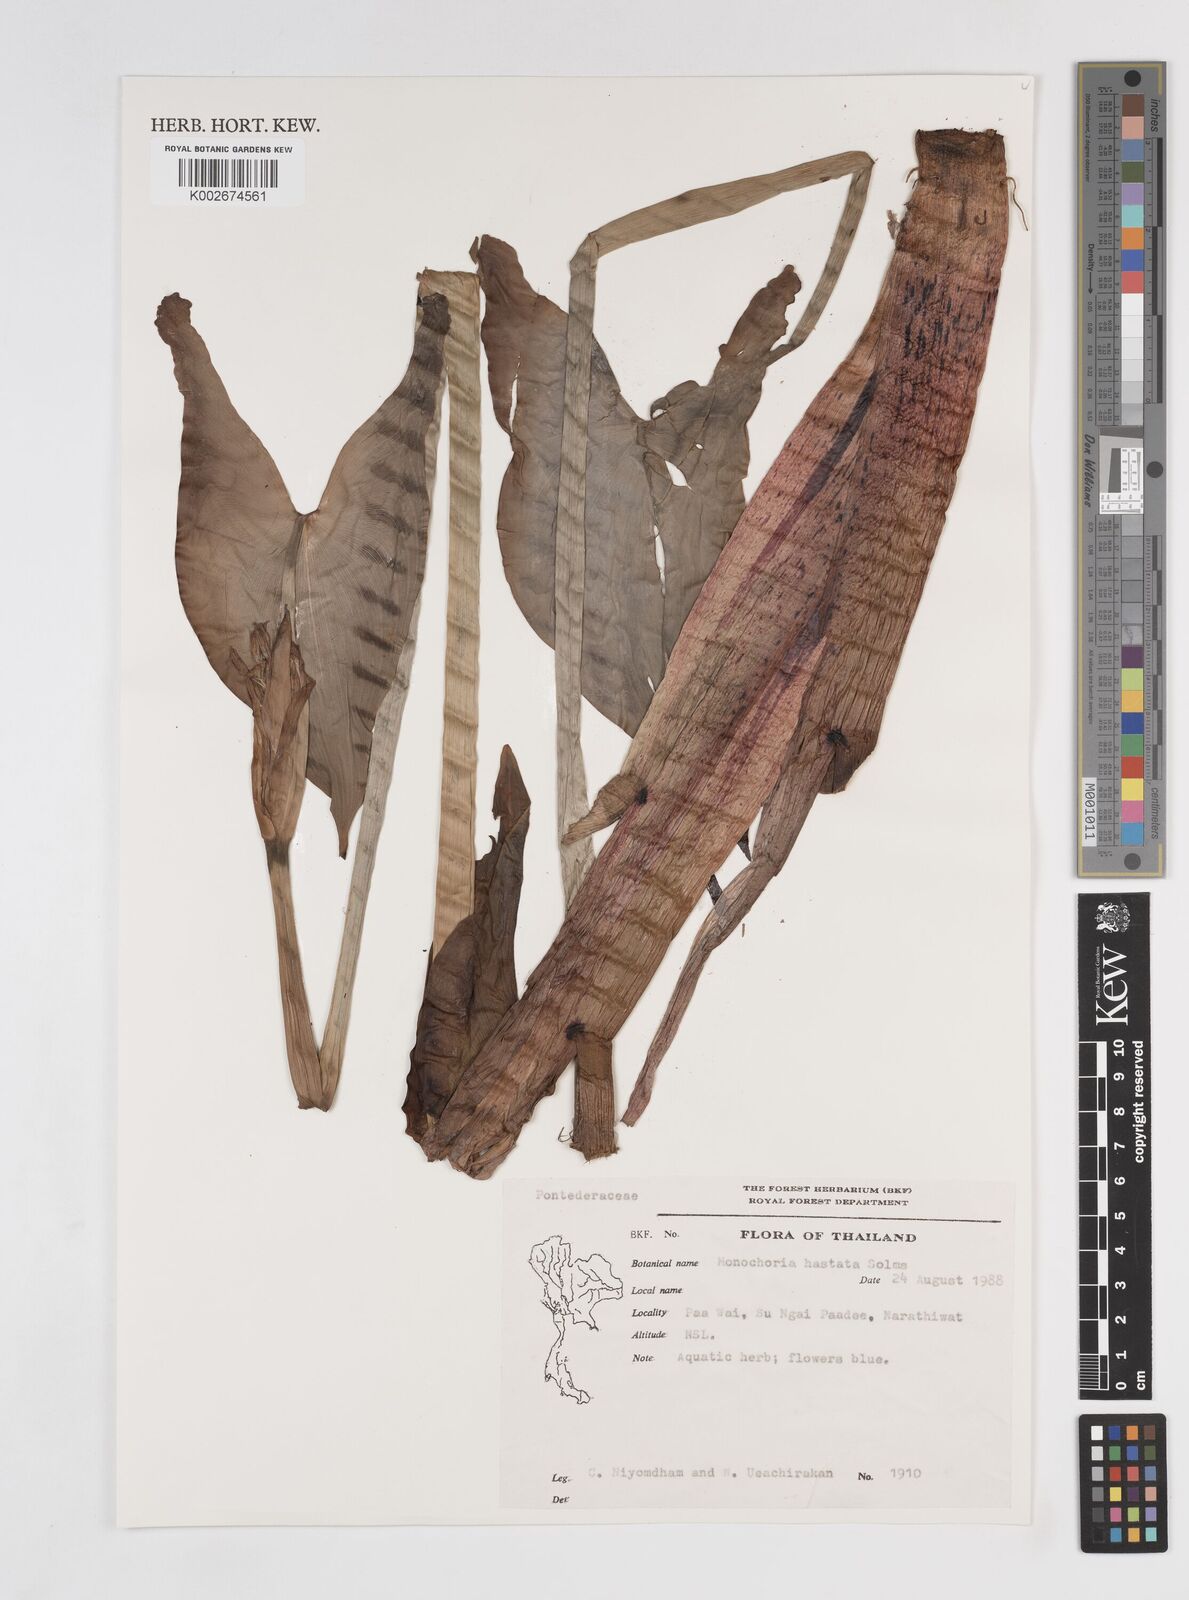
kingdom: Plantae
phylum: Tracheophyta
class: Liliopsida
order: Commelinales
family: Pontederiaceae
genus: Pontederia
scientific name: Pontederia hastata
